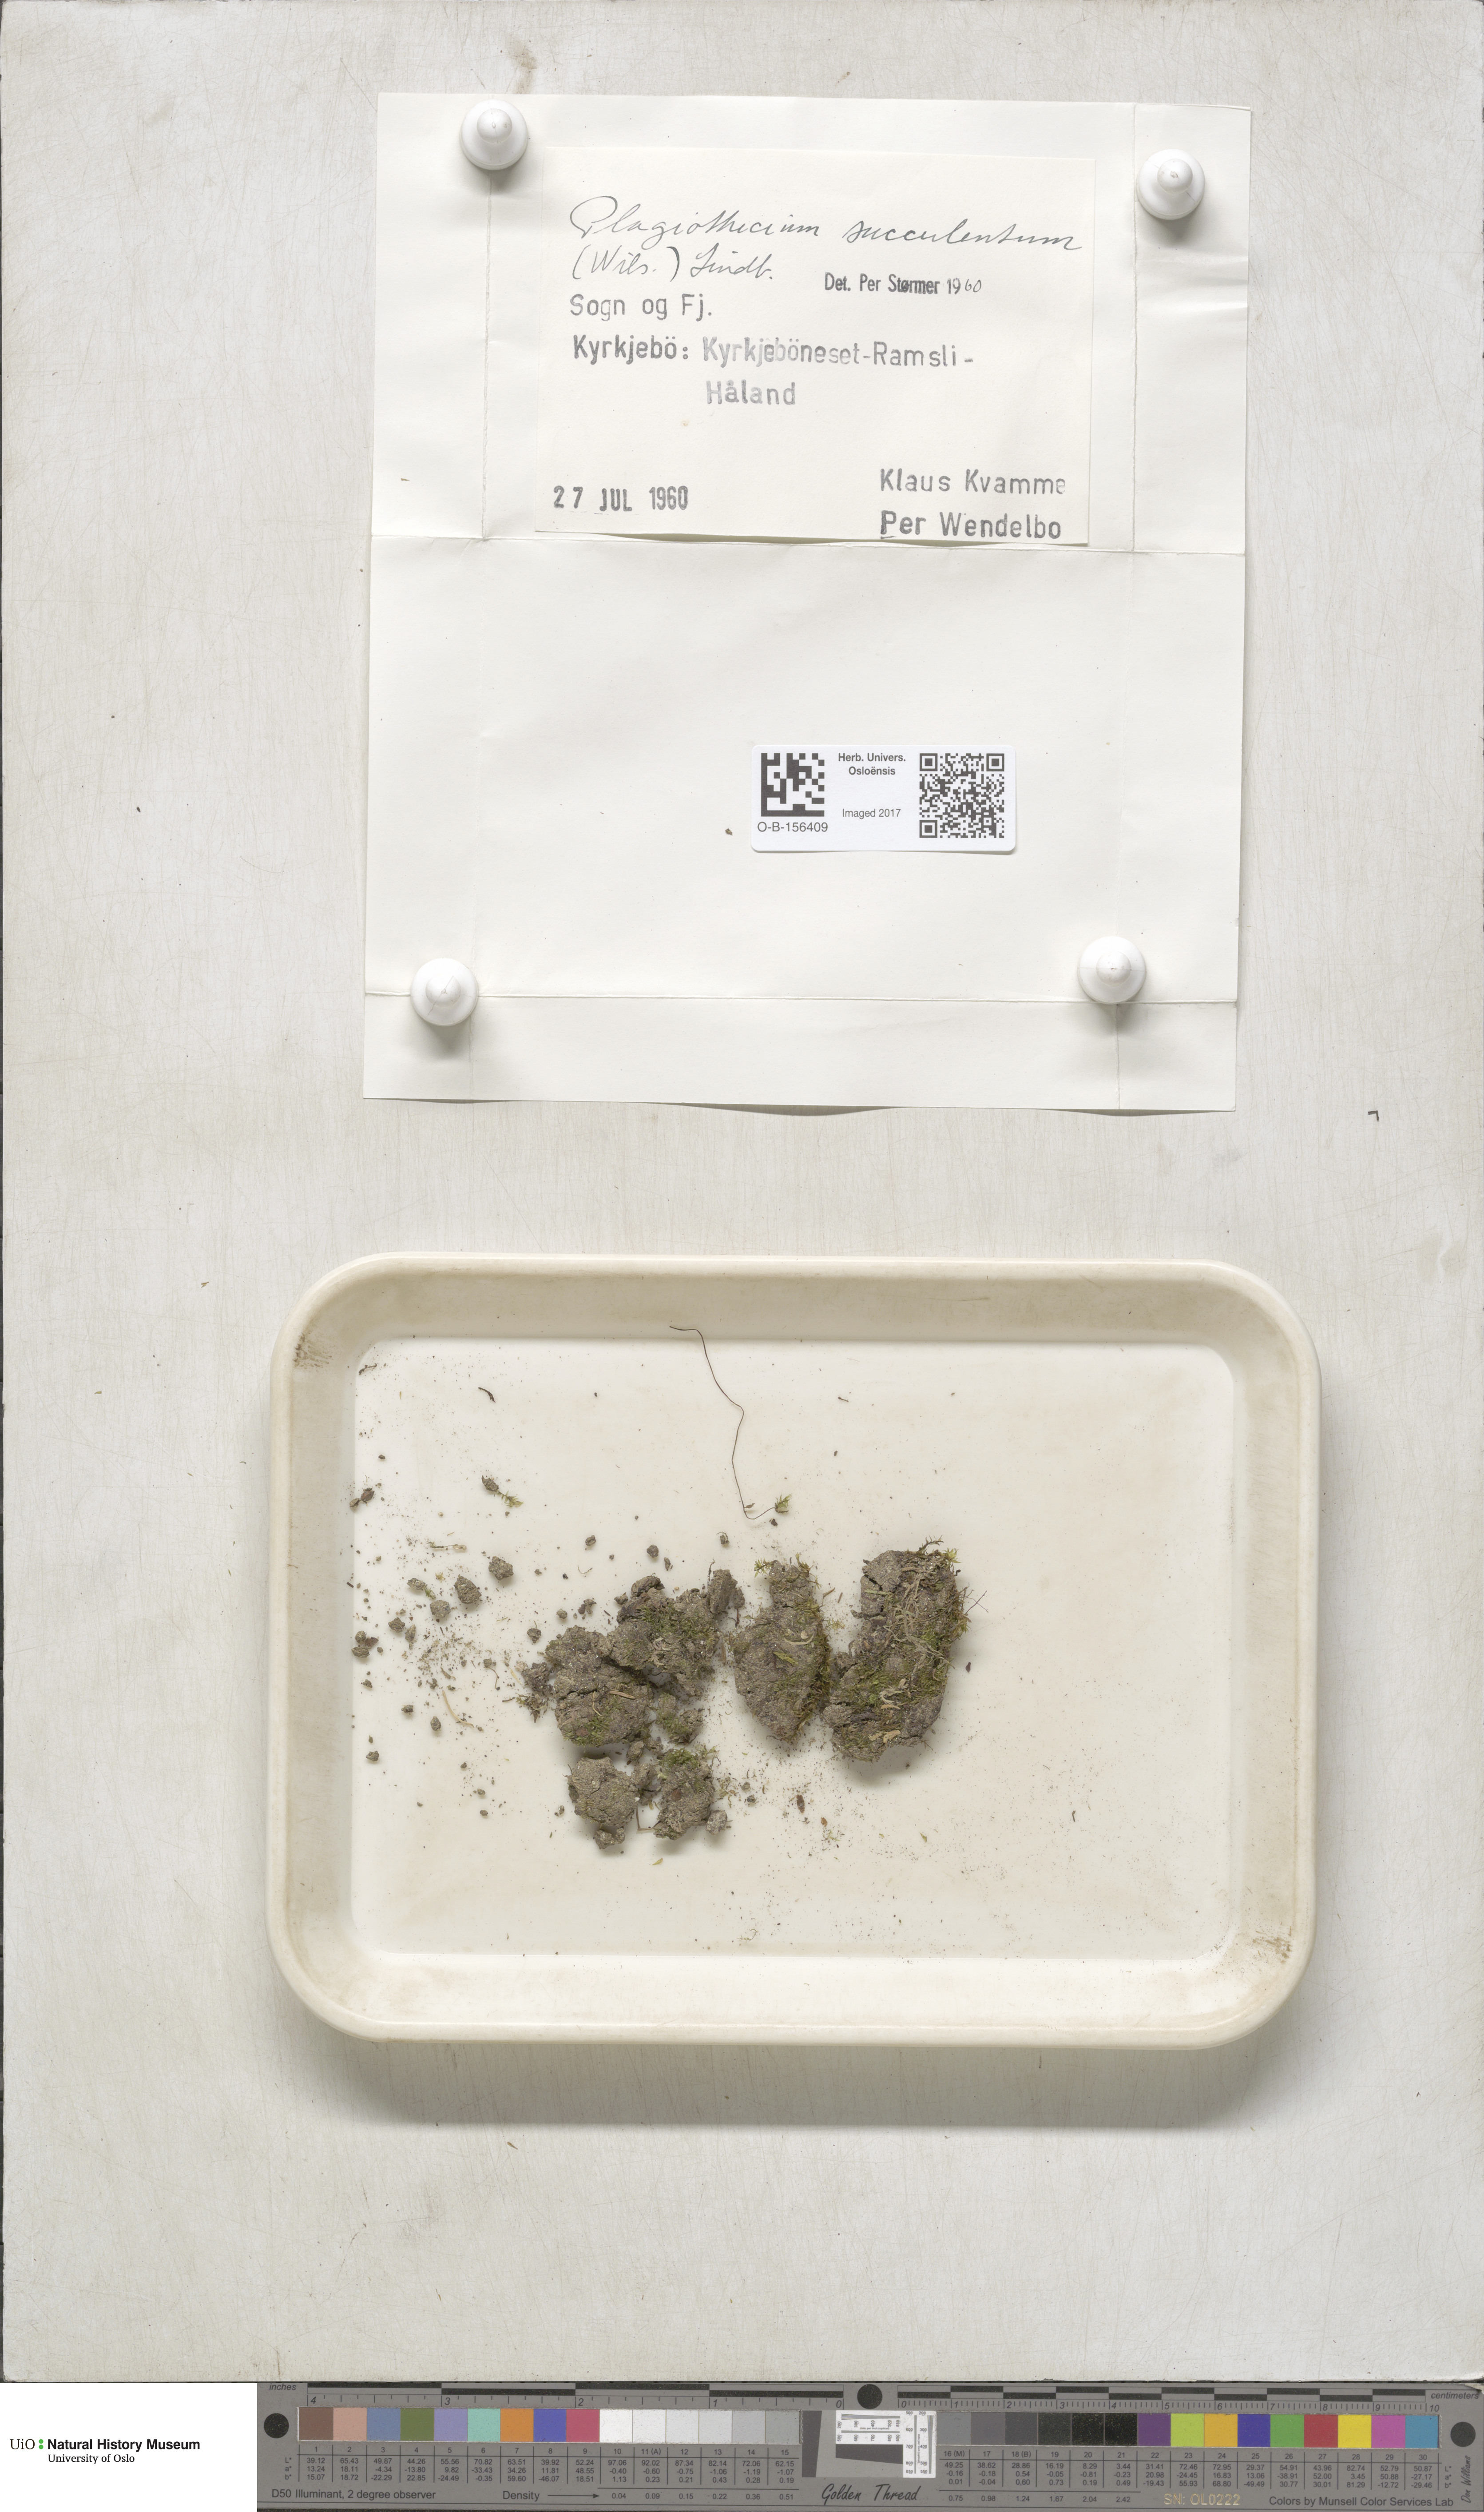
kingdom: Plantae
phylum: Bryophyta
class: Bryopsida
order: Hypnales
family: Plagiotheciaceae
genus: Plagiothecium
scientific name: Plagiothecium nemorale
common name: Woodsy silk-moss
